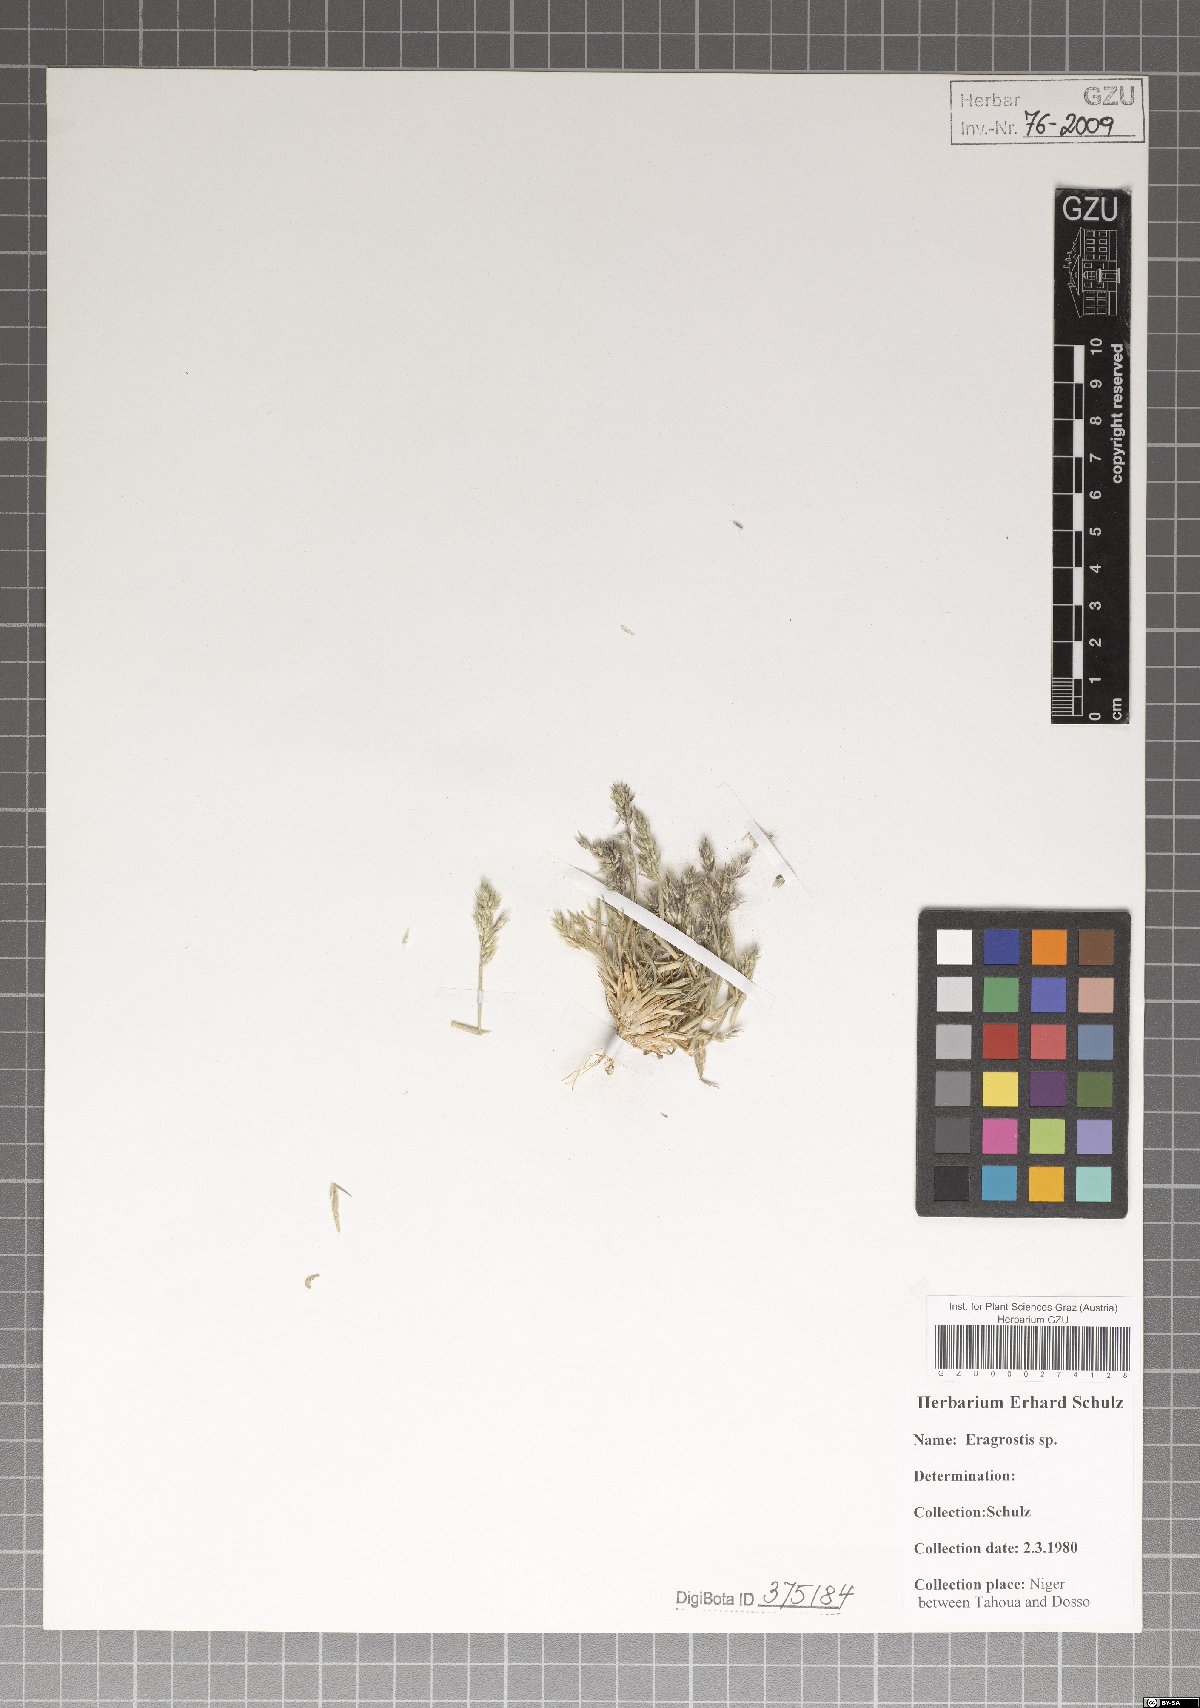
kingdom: Plantae
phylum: Tracheophyta
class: Liliopsida
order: Poales
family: Poaceae
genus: Eragrostis
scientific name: Eragrostis
